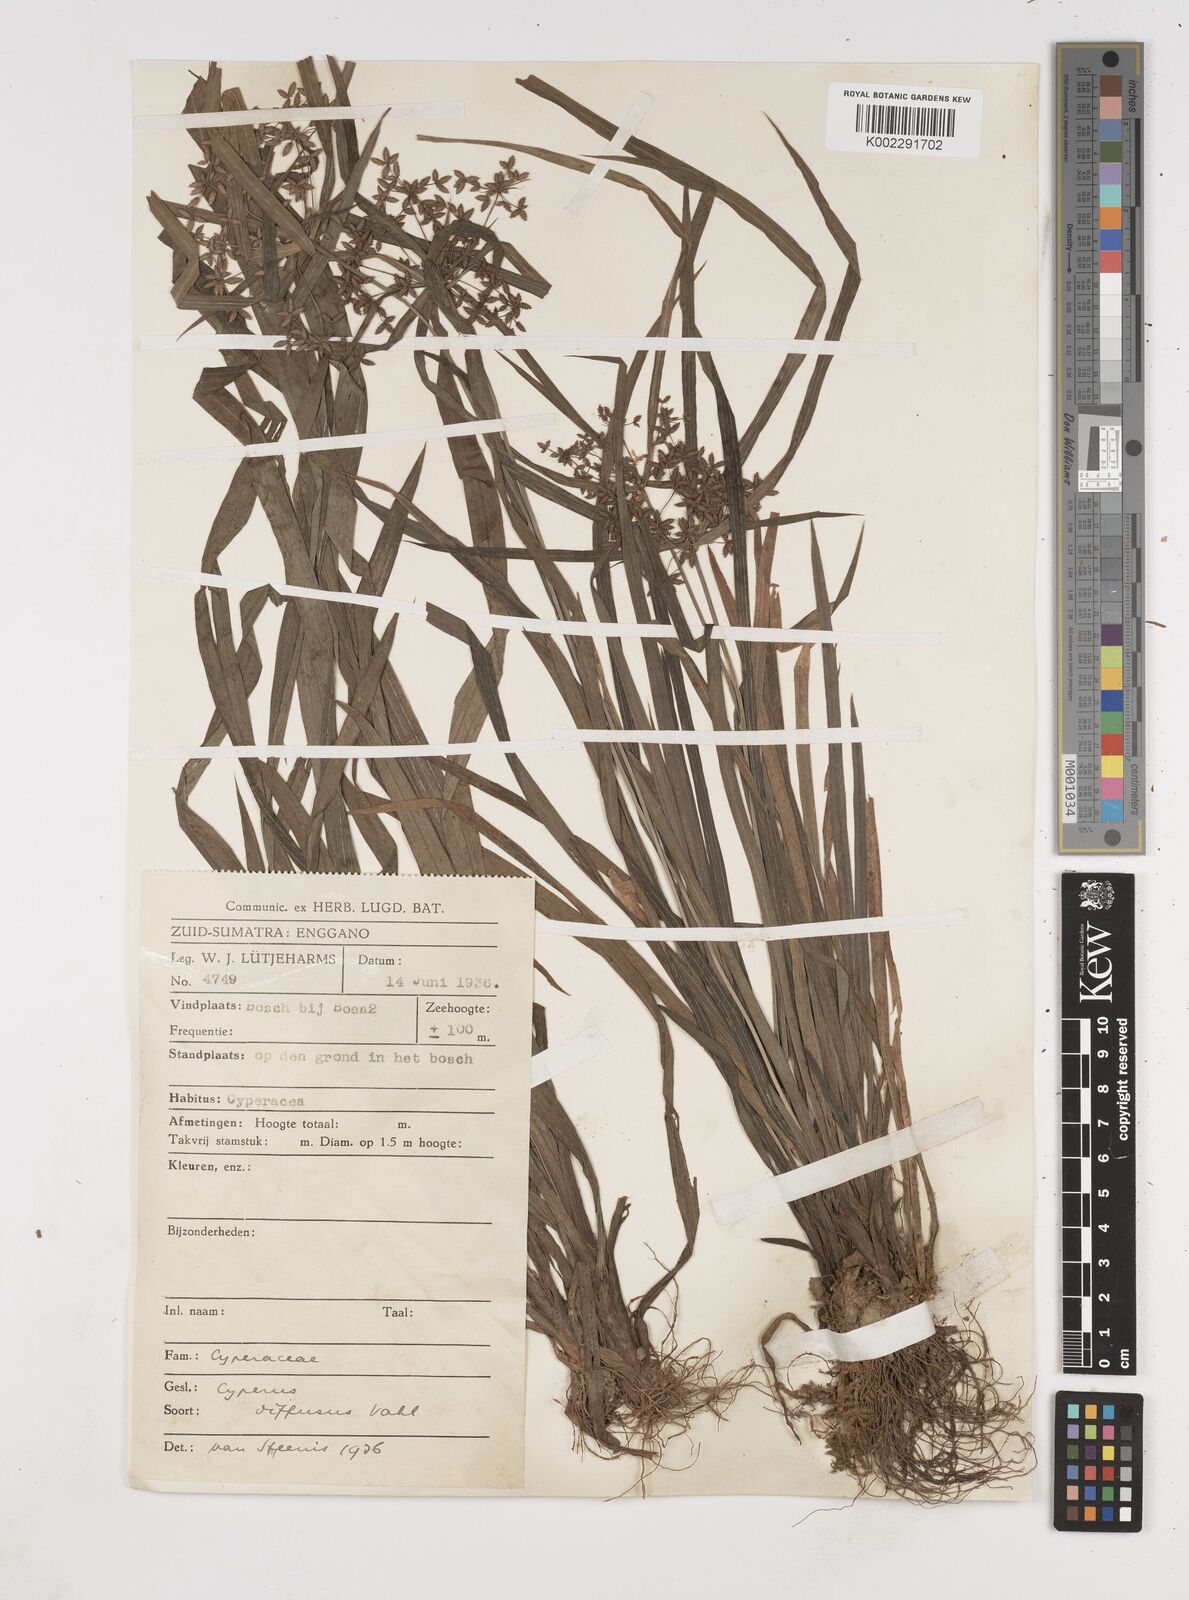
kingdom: Plantae
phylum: Tracheophyta
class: Liliopsida
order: Poales
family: Cyperaceae
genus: Cyperus
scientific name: Cyperus diffusus
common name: Dwarf umbrella grass
